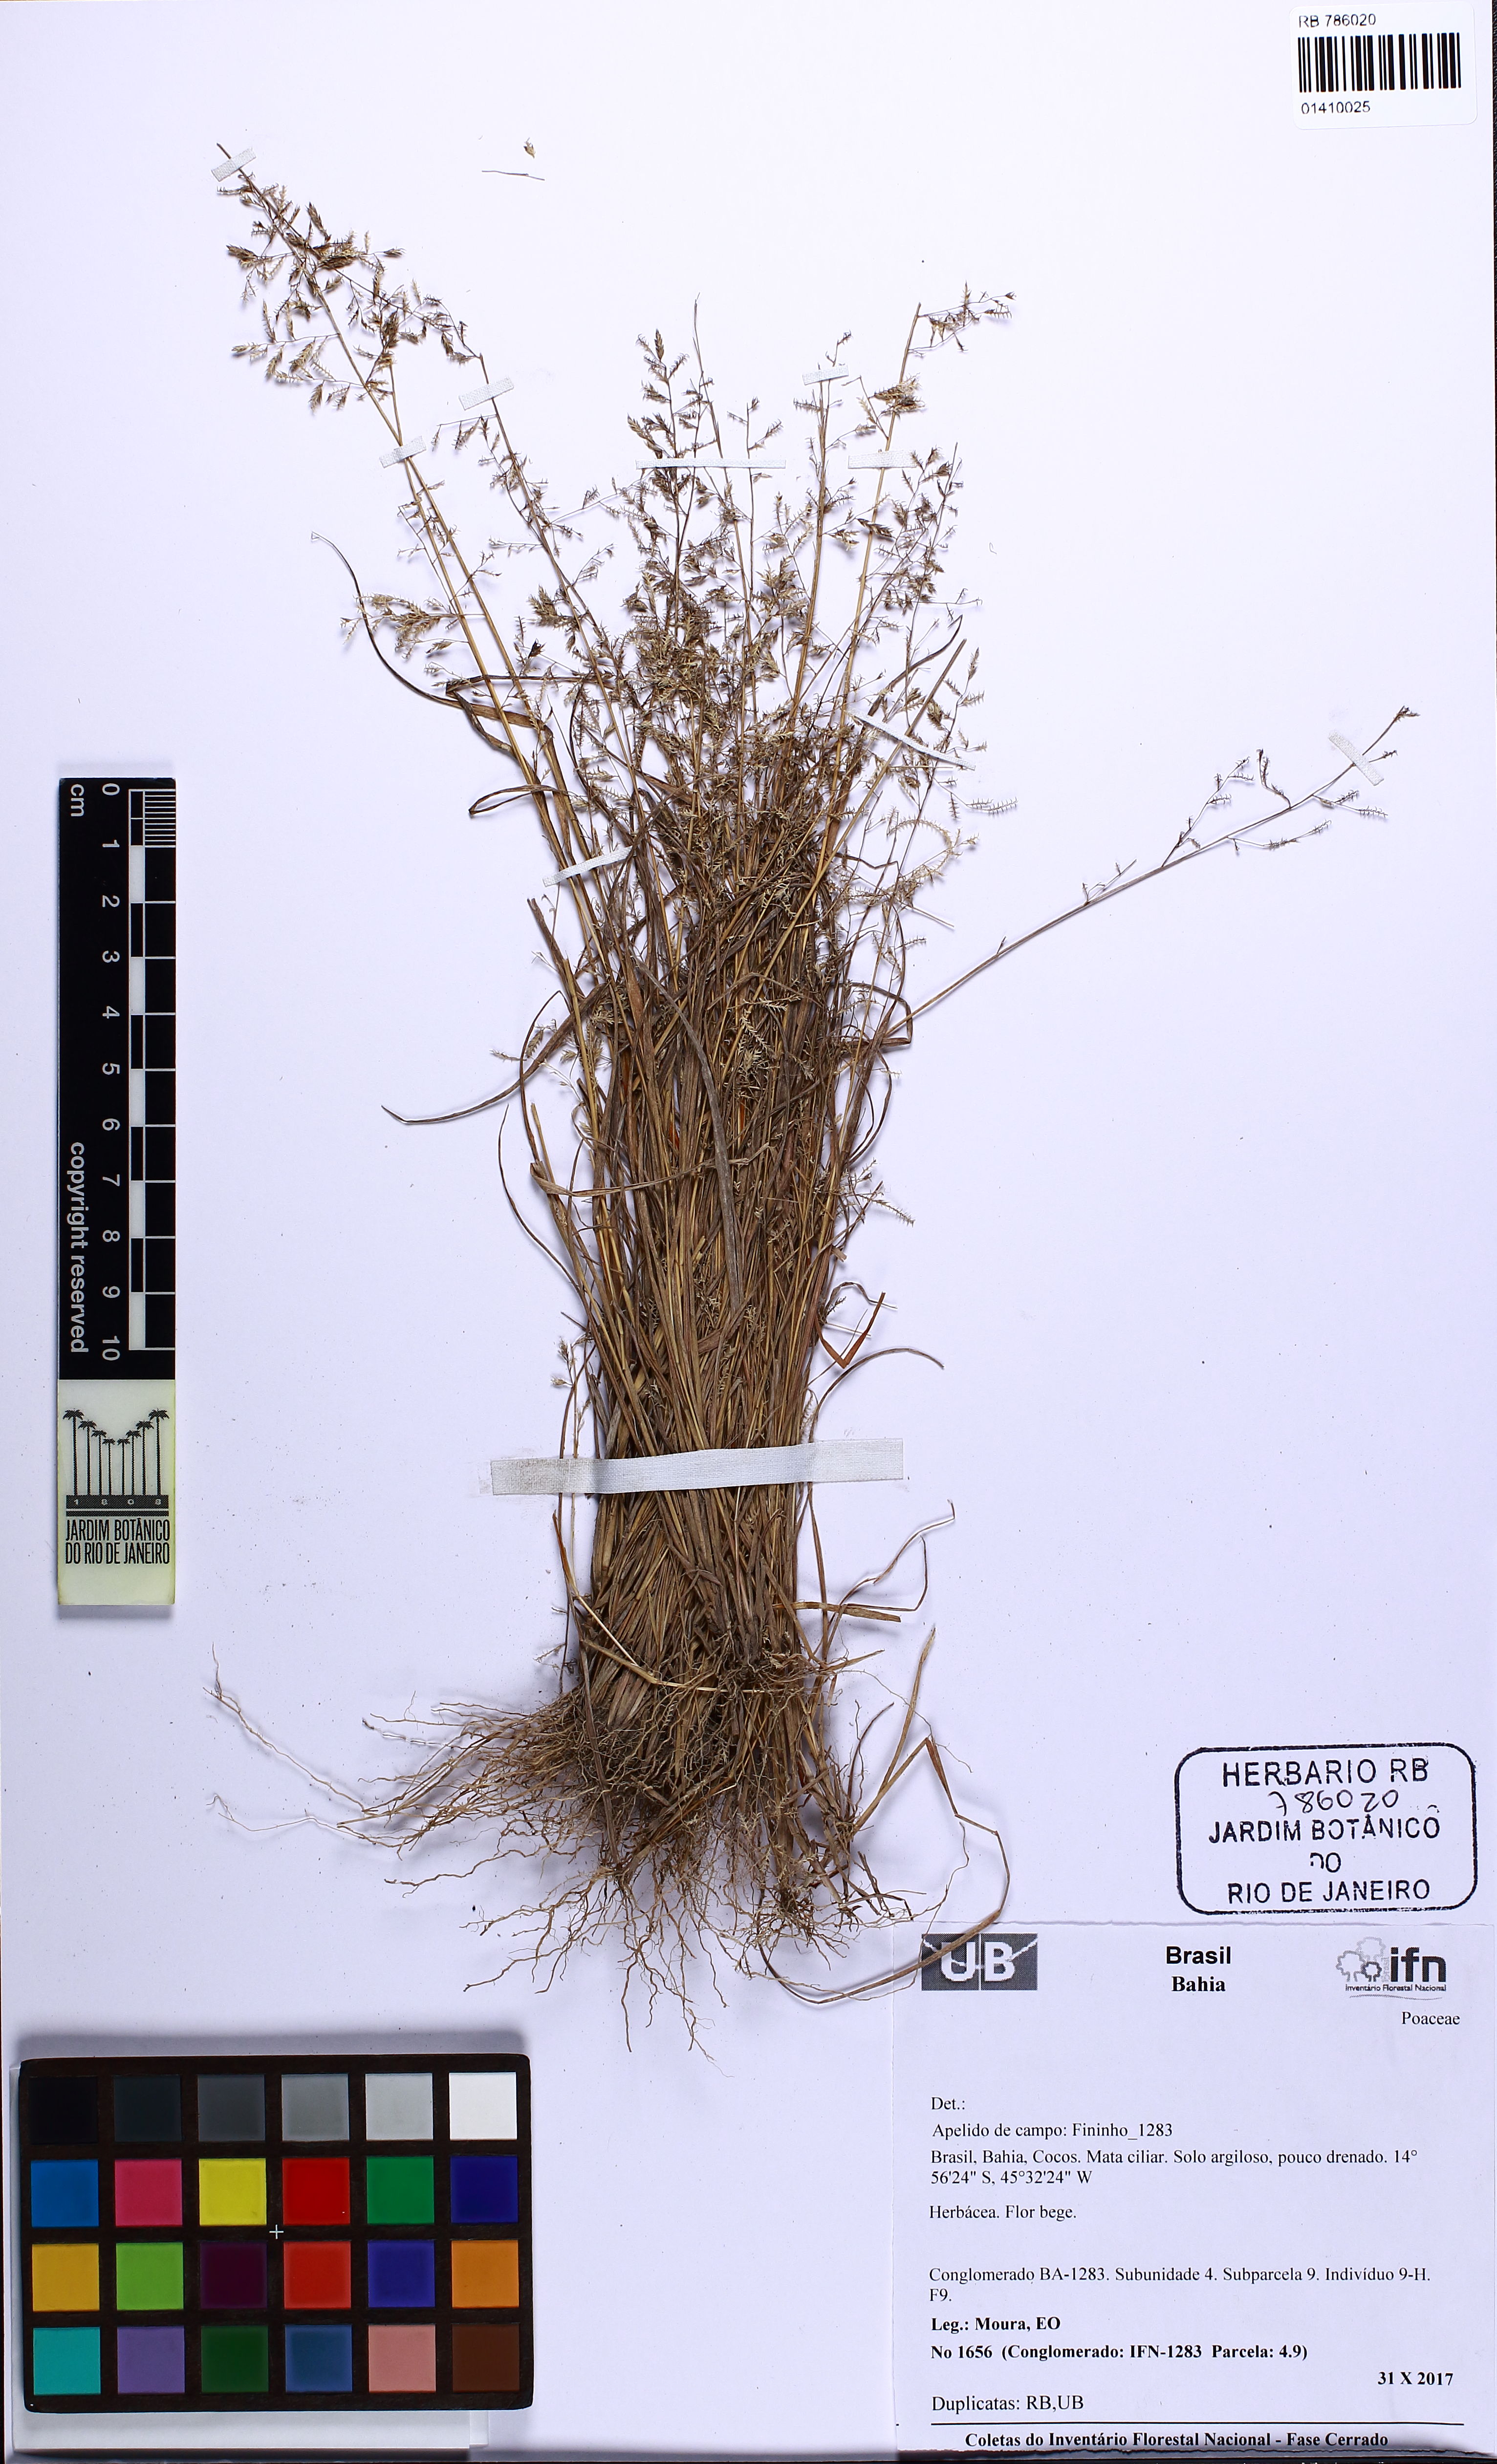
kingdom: Plantae
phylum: Tracheophyta
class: Liliopsida
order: Poales
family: Poaceae
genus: Eragrostis
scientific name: Eragrostis
